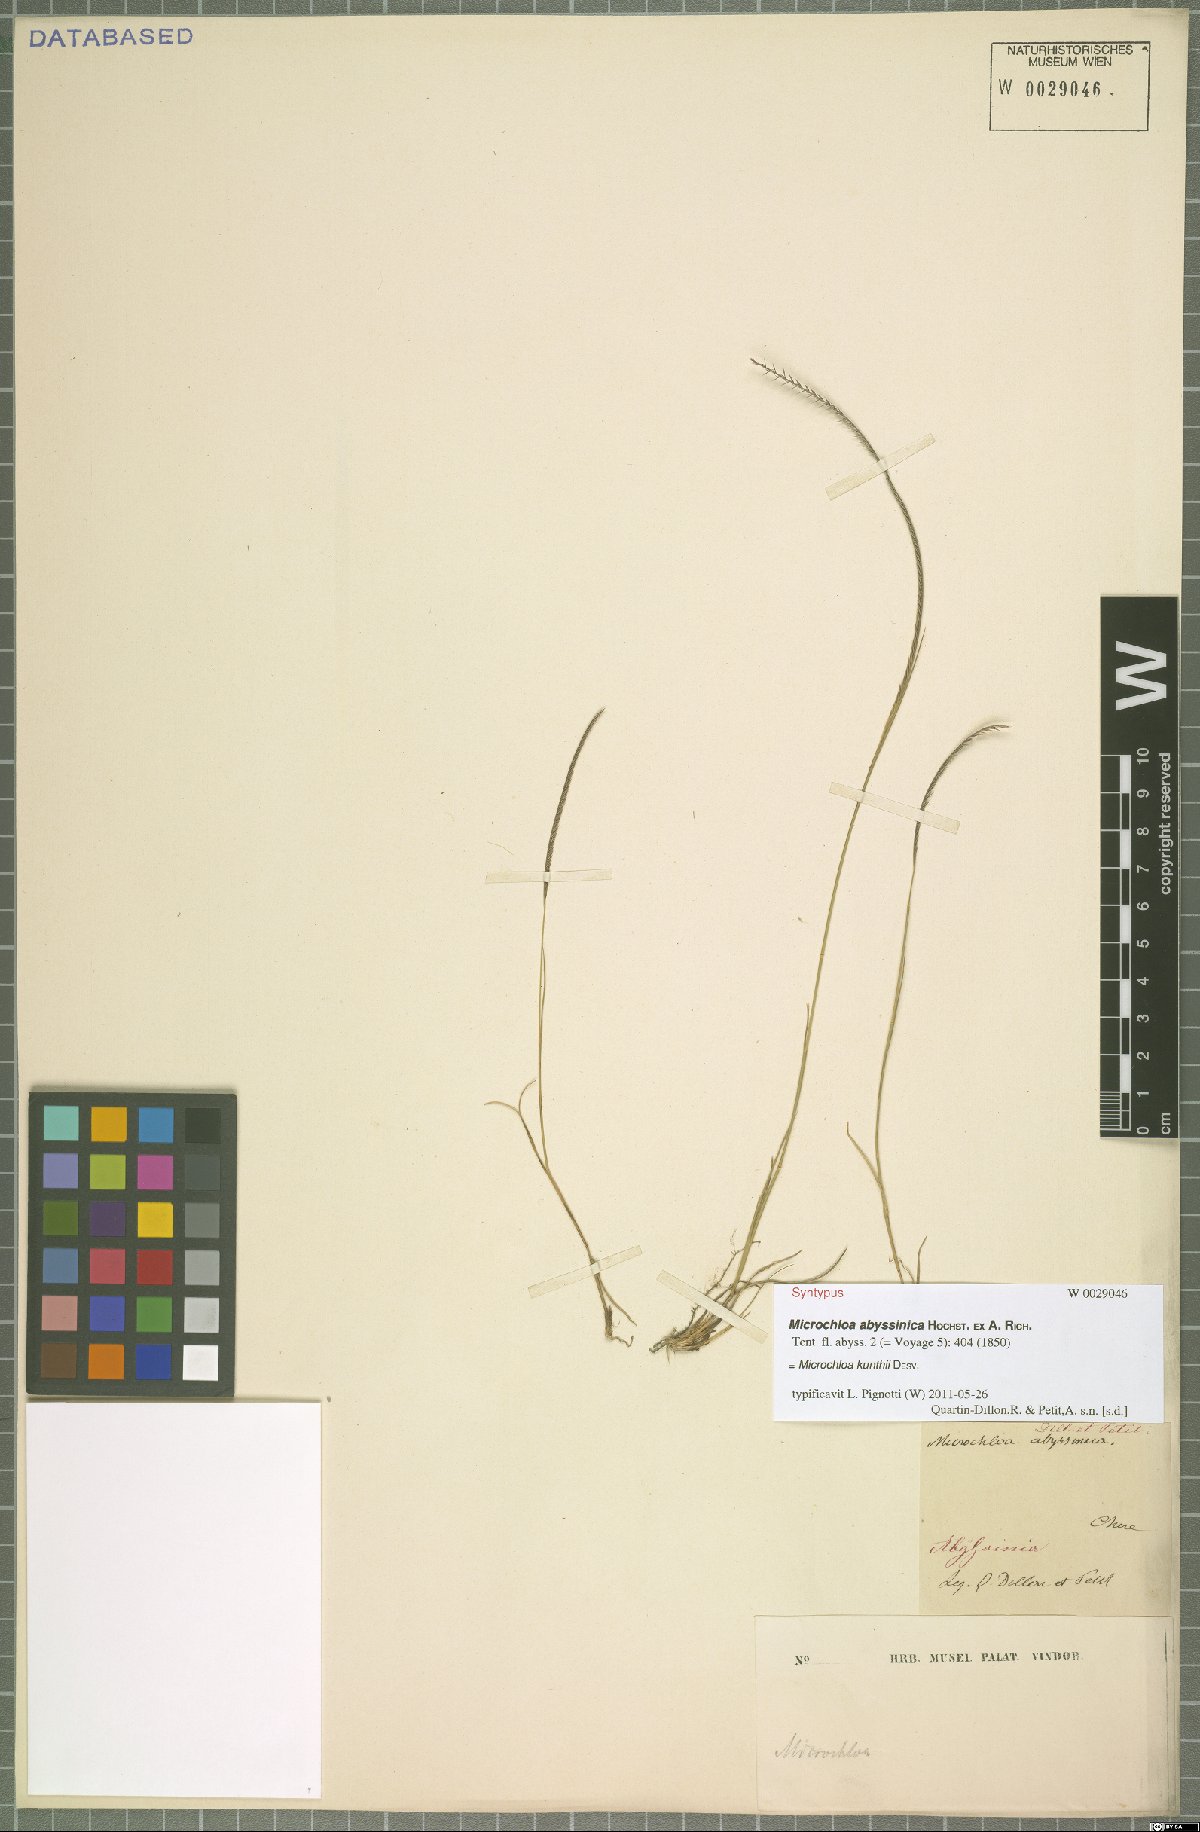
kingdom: Plantae
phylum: Tracheophyta
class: Liliopsida
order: Poales
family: Poaceae
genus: Microchloa
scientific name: Microchloa kunthii
